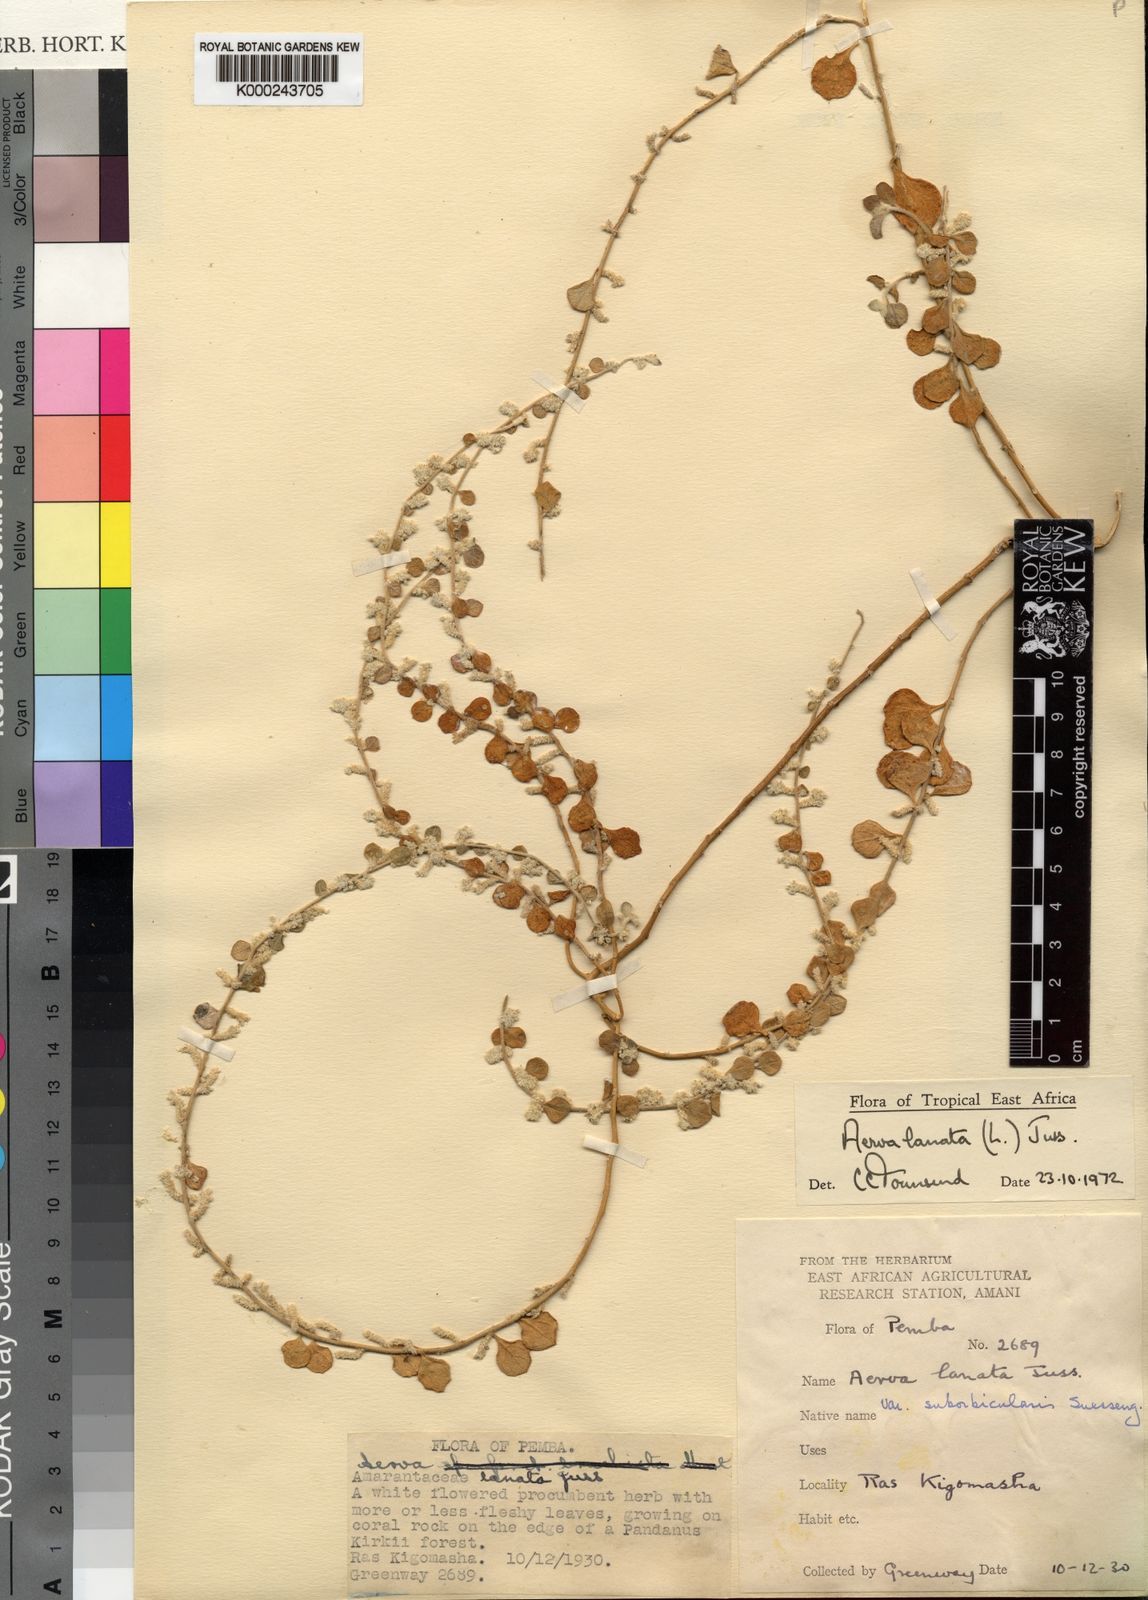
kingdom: Plantae
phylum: Tracheophyta
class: Magnoliopsida
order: Caryophyllales
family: Amaranthaceae
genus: Ouret
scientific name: Ouret lanata
